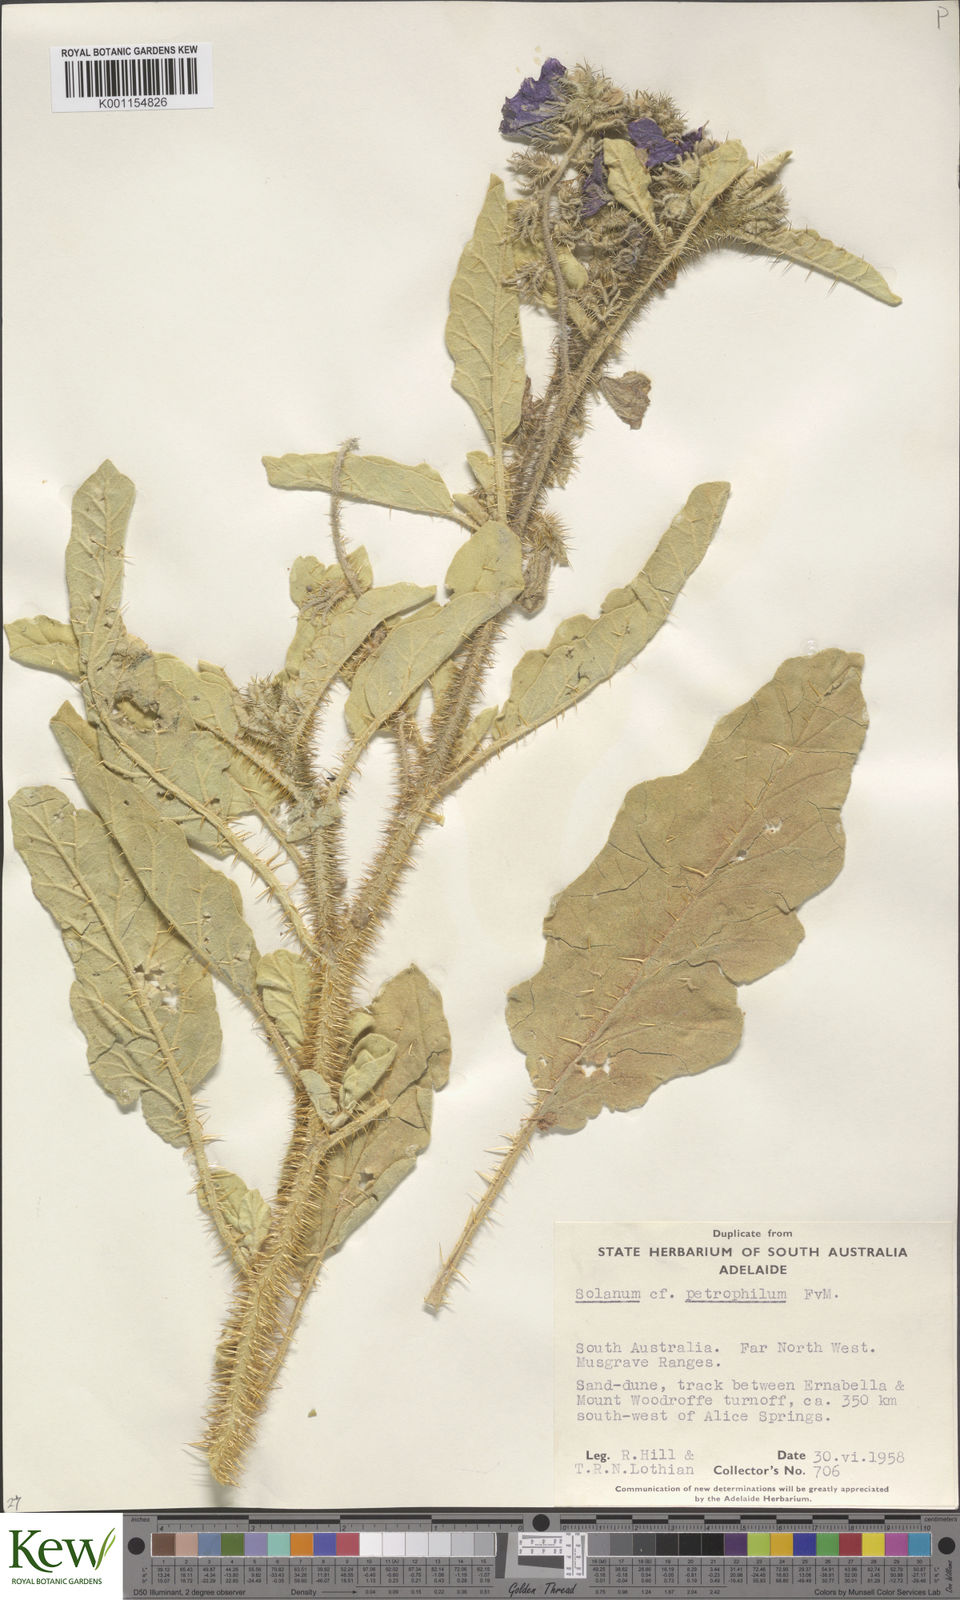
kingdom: Plantae
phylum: Tracheophyta
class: Magnoliopsida
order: Solanales
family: Solanaceae
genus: Solanum
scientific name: Solanum petrophilum
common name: Rock nightshade
